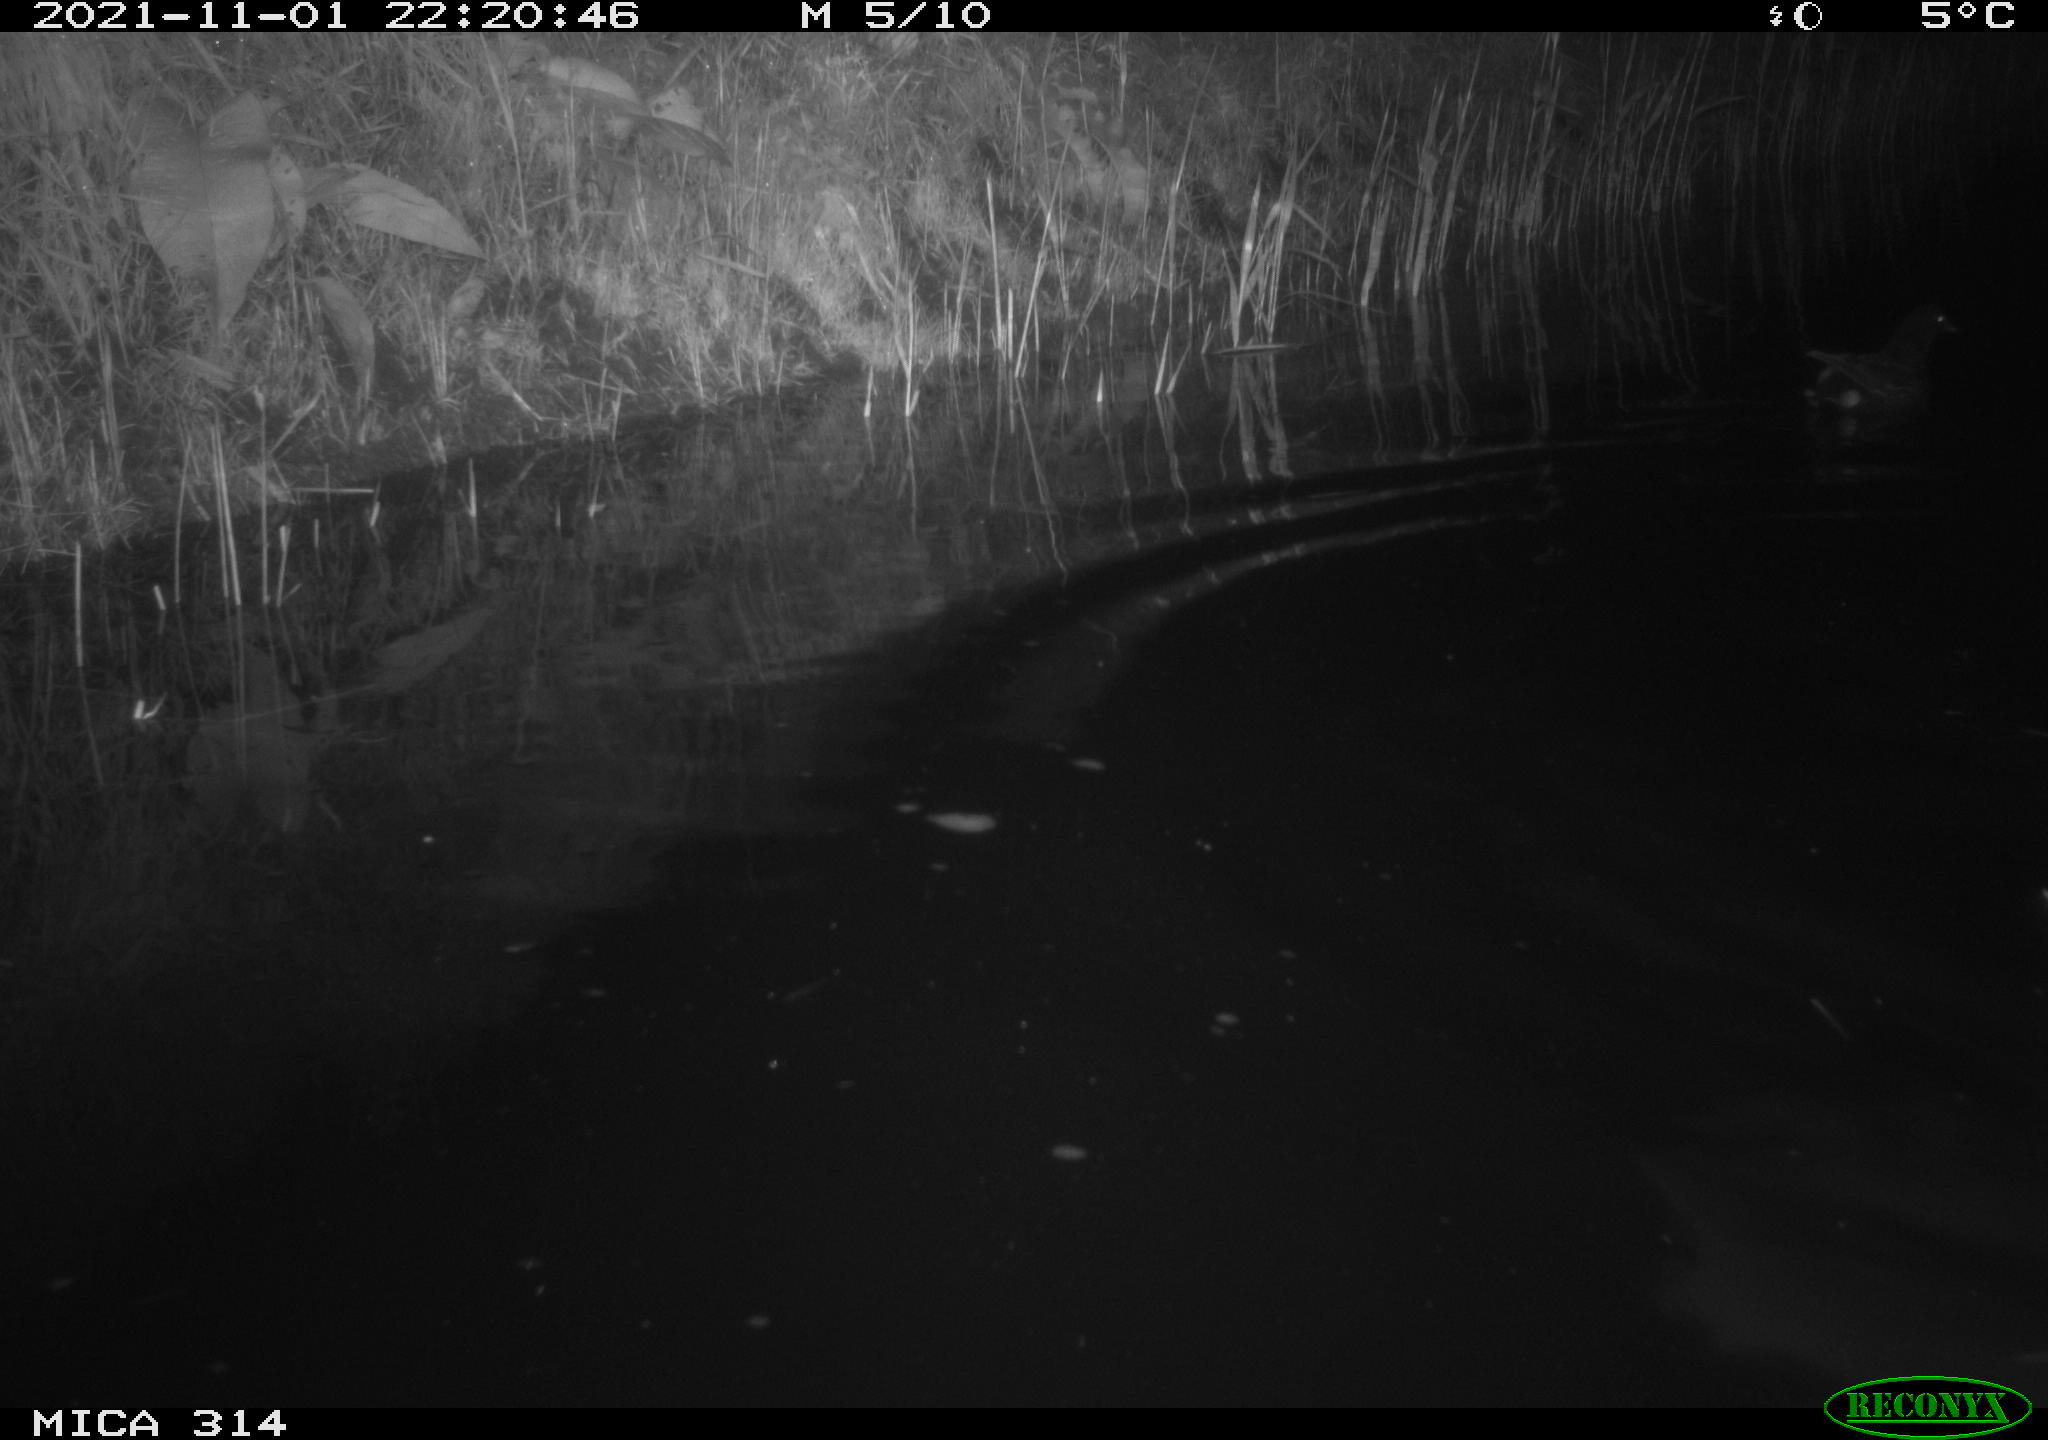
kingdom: Animalia
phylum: Chordata
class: Aves
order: Gruiformes
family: Rallidae
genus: Gallinula
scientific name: Gallinula chloropus
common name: Common moorhen
